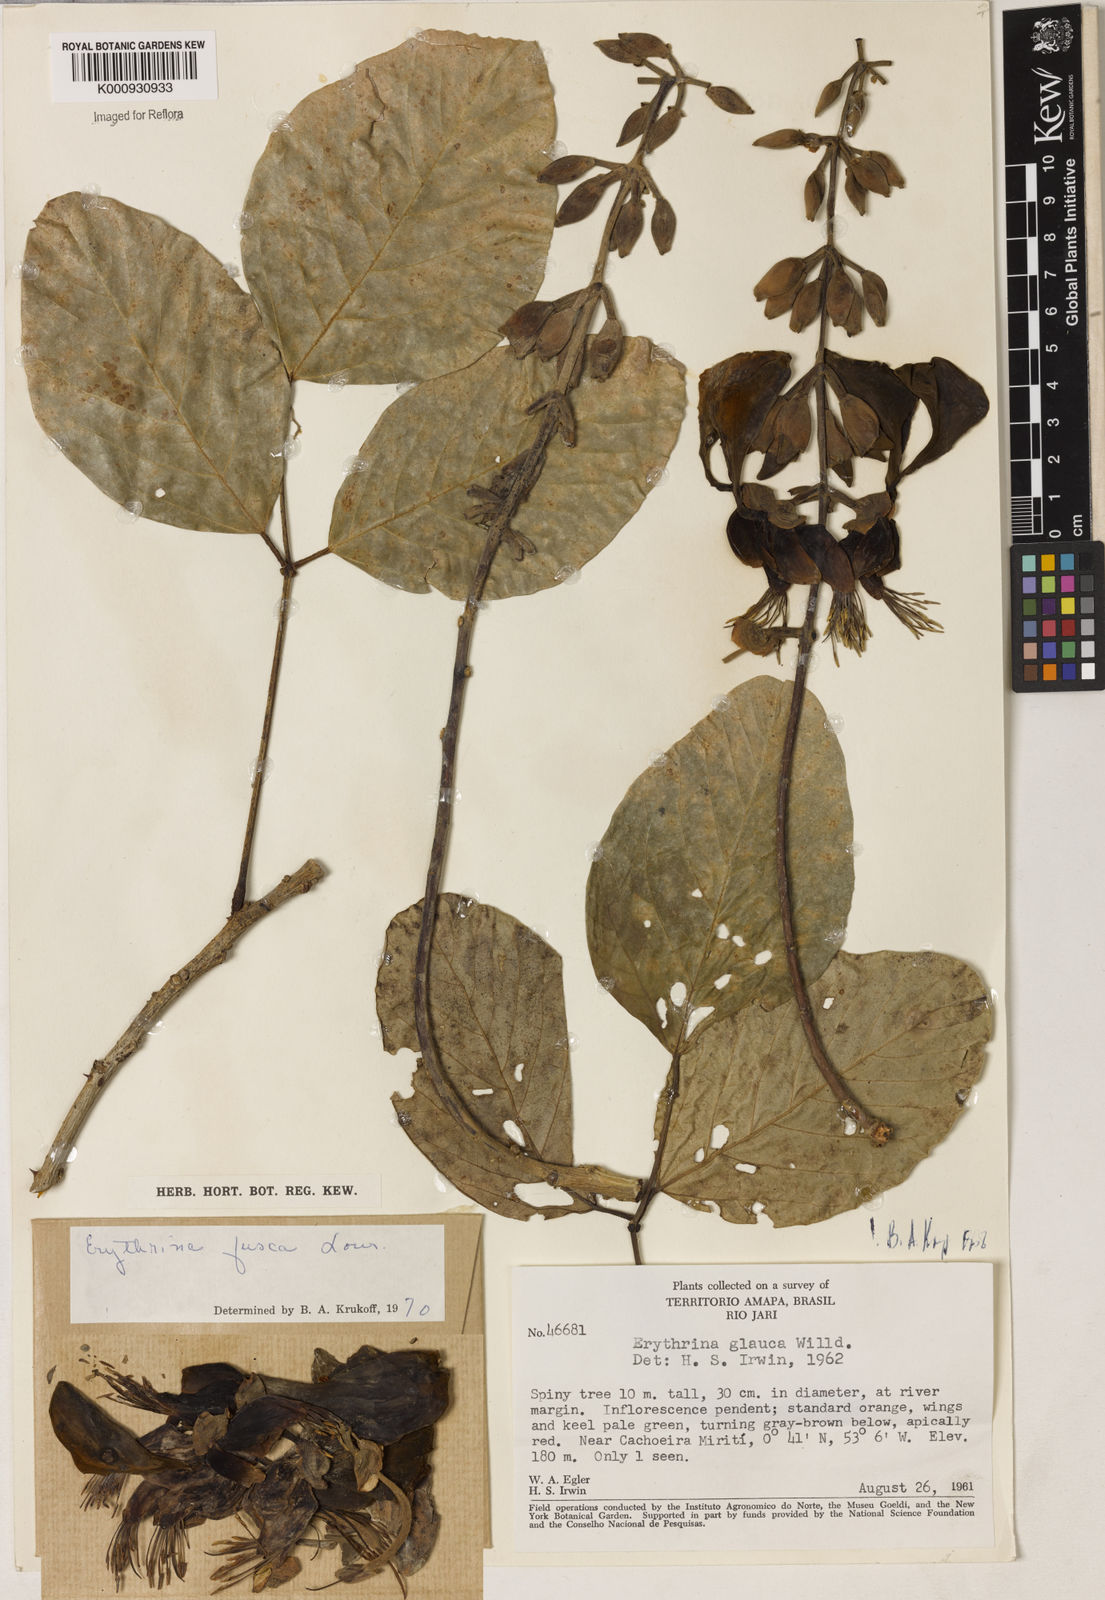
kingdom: Plantae
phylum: Tracheophyta
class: Magnoliopsida
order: Fabales
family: Fabaceae
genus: Erythrina
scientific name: Erythrina fusca
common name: Coral-bean
